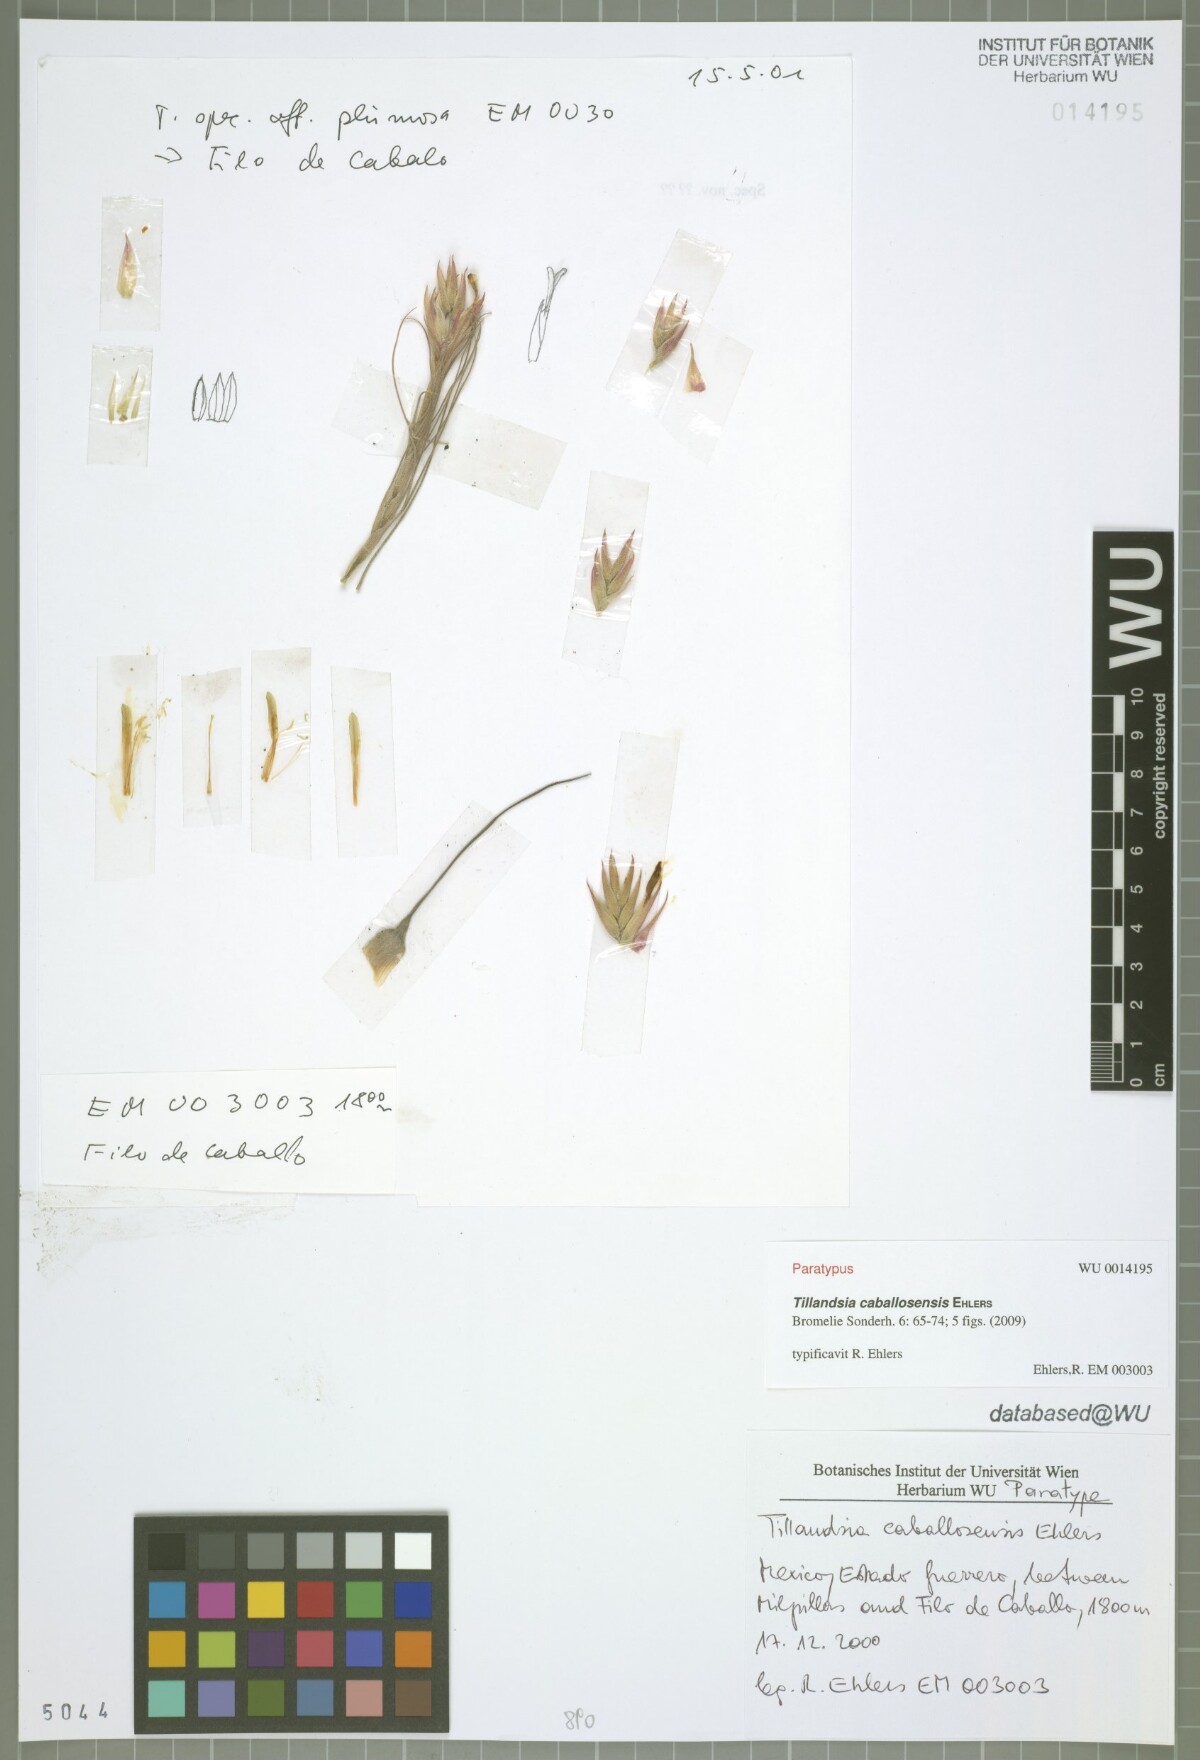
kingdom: Plantae
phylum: Tracheophyta
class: Liliopsida
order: Poales
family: Bromeliaceae
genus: Tillandsia
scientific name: Tillandsia caballosensis
